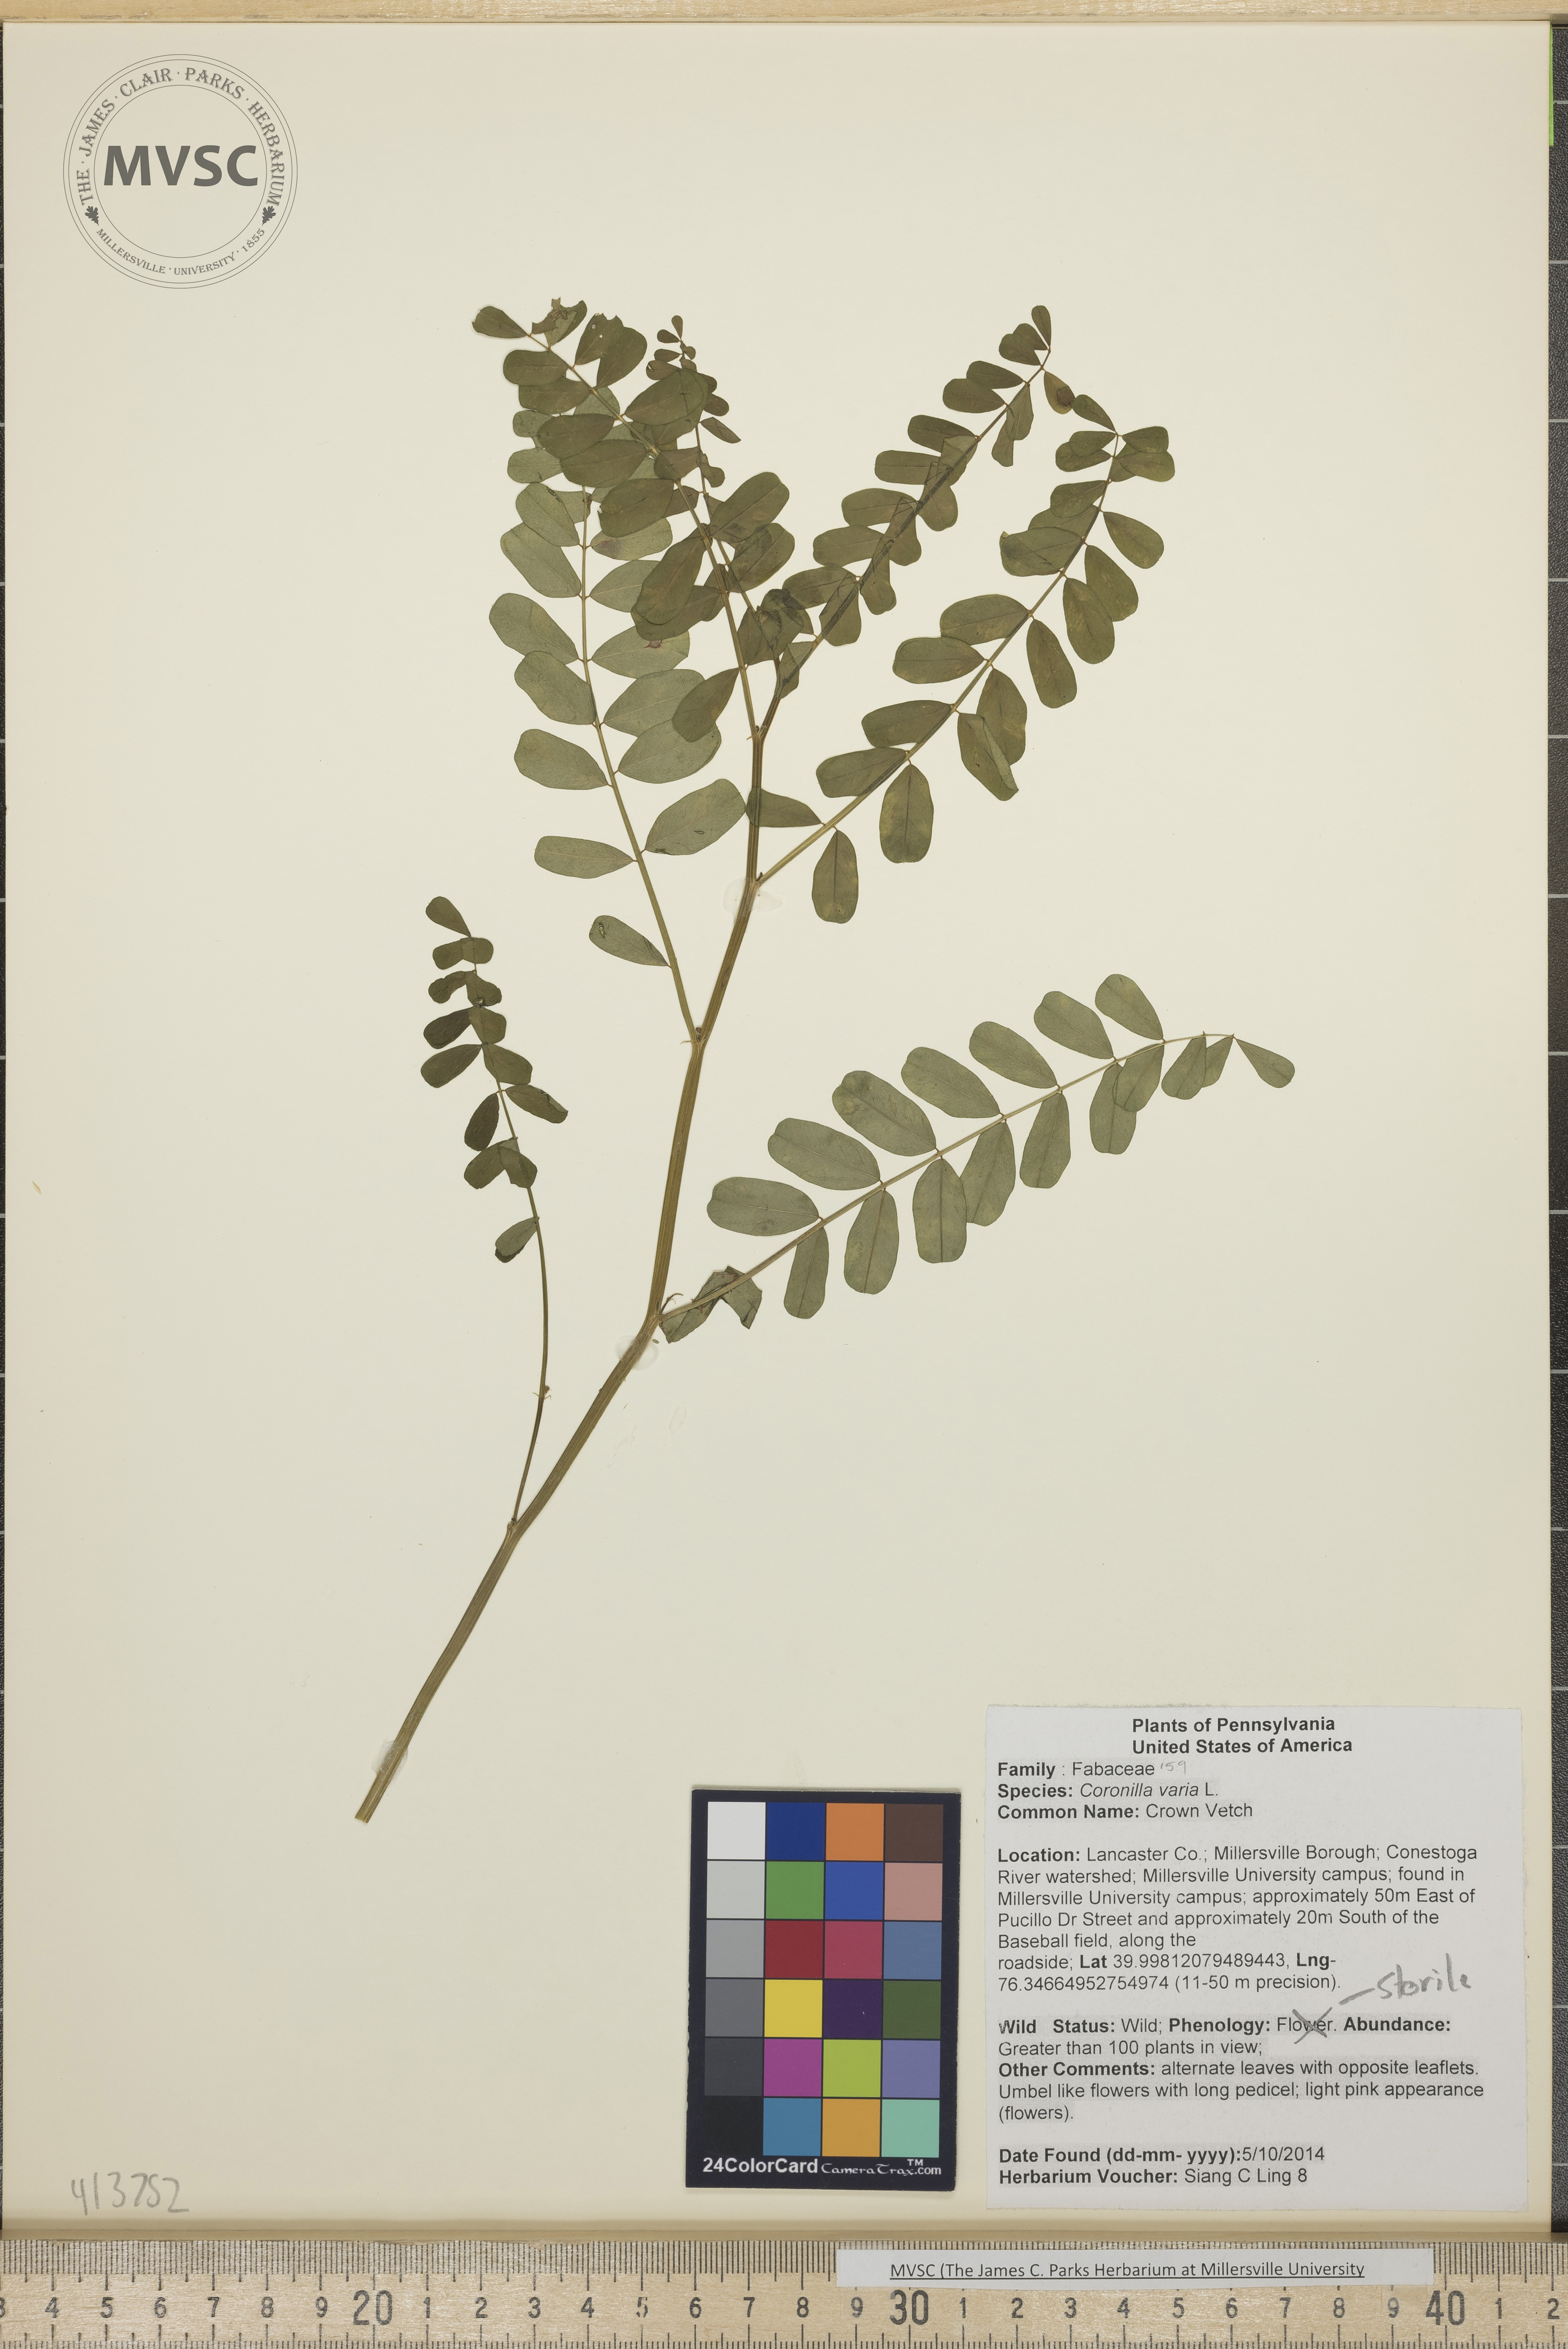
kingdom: Plantae
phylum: Tracheophyta
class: Magnoliopsida
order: Fabales
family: Fabaceae
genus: Coronilla
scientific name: Coronilla varia
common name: Crown Vetch
